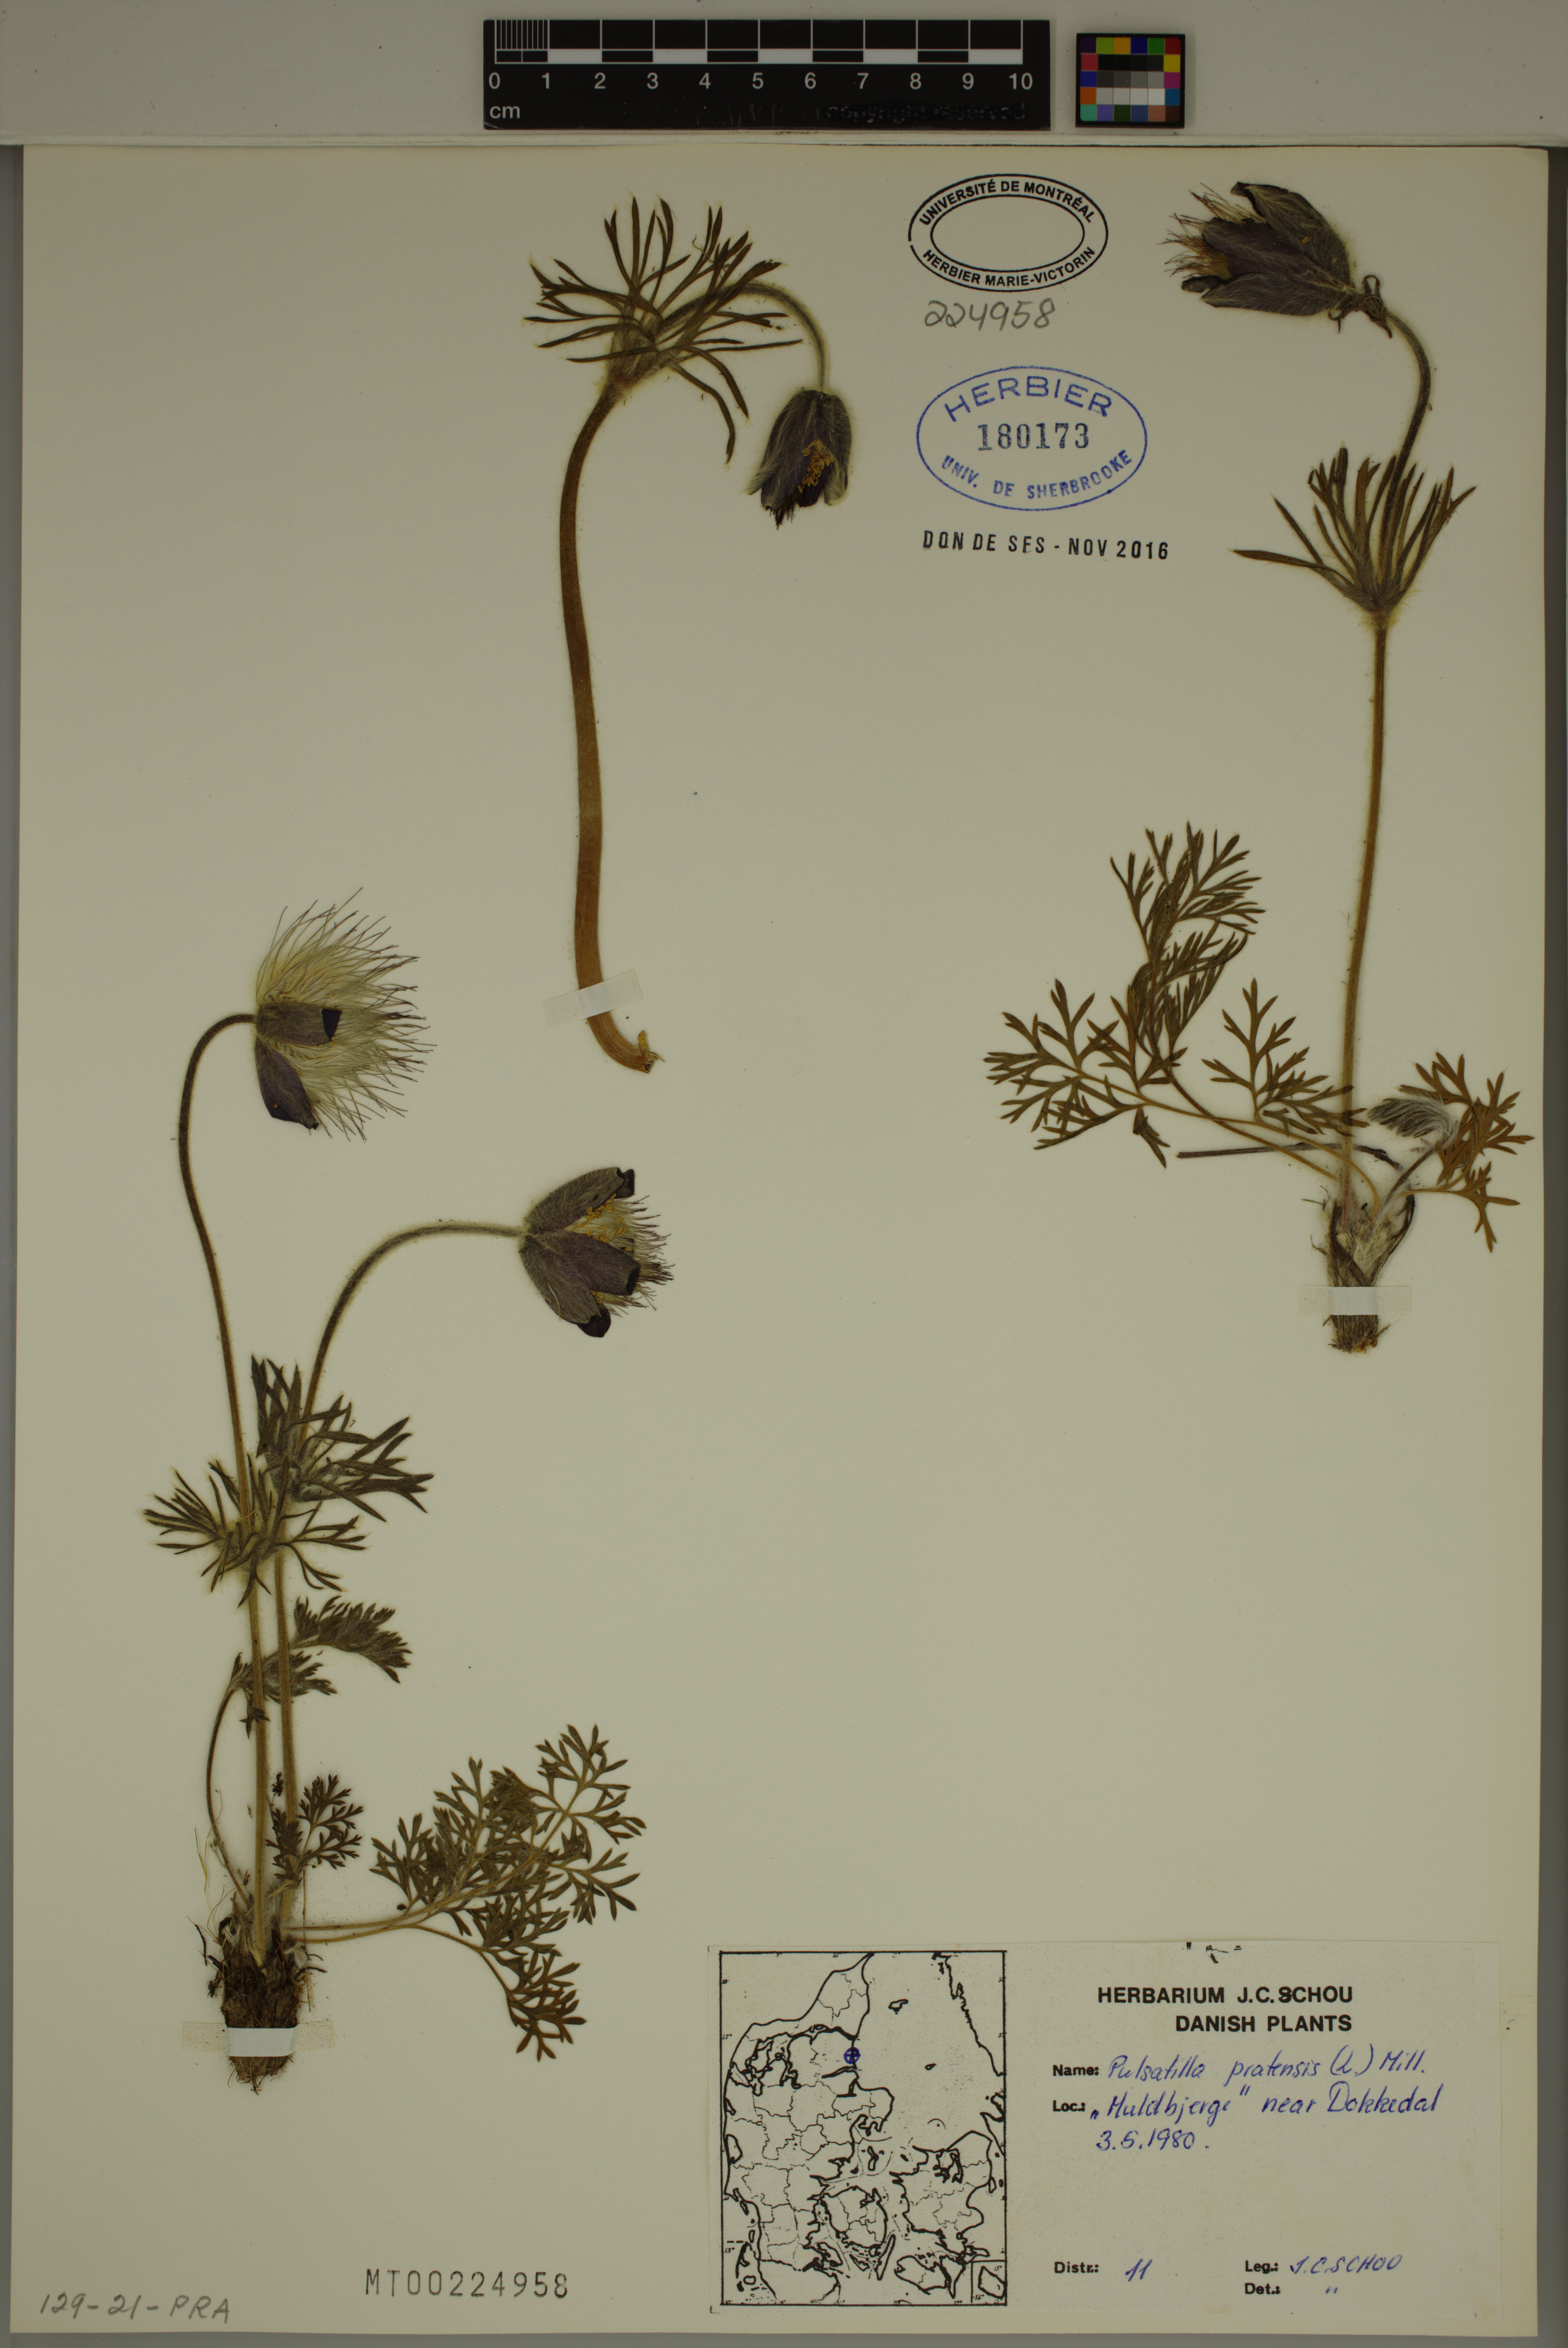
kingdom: Plantae
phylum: Tracheophyta
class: Magnoliopsida
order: Ranunculales
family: Ranunculaceae
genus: Pulsatilla
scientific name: Pulsatilla pratensis
